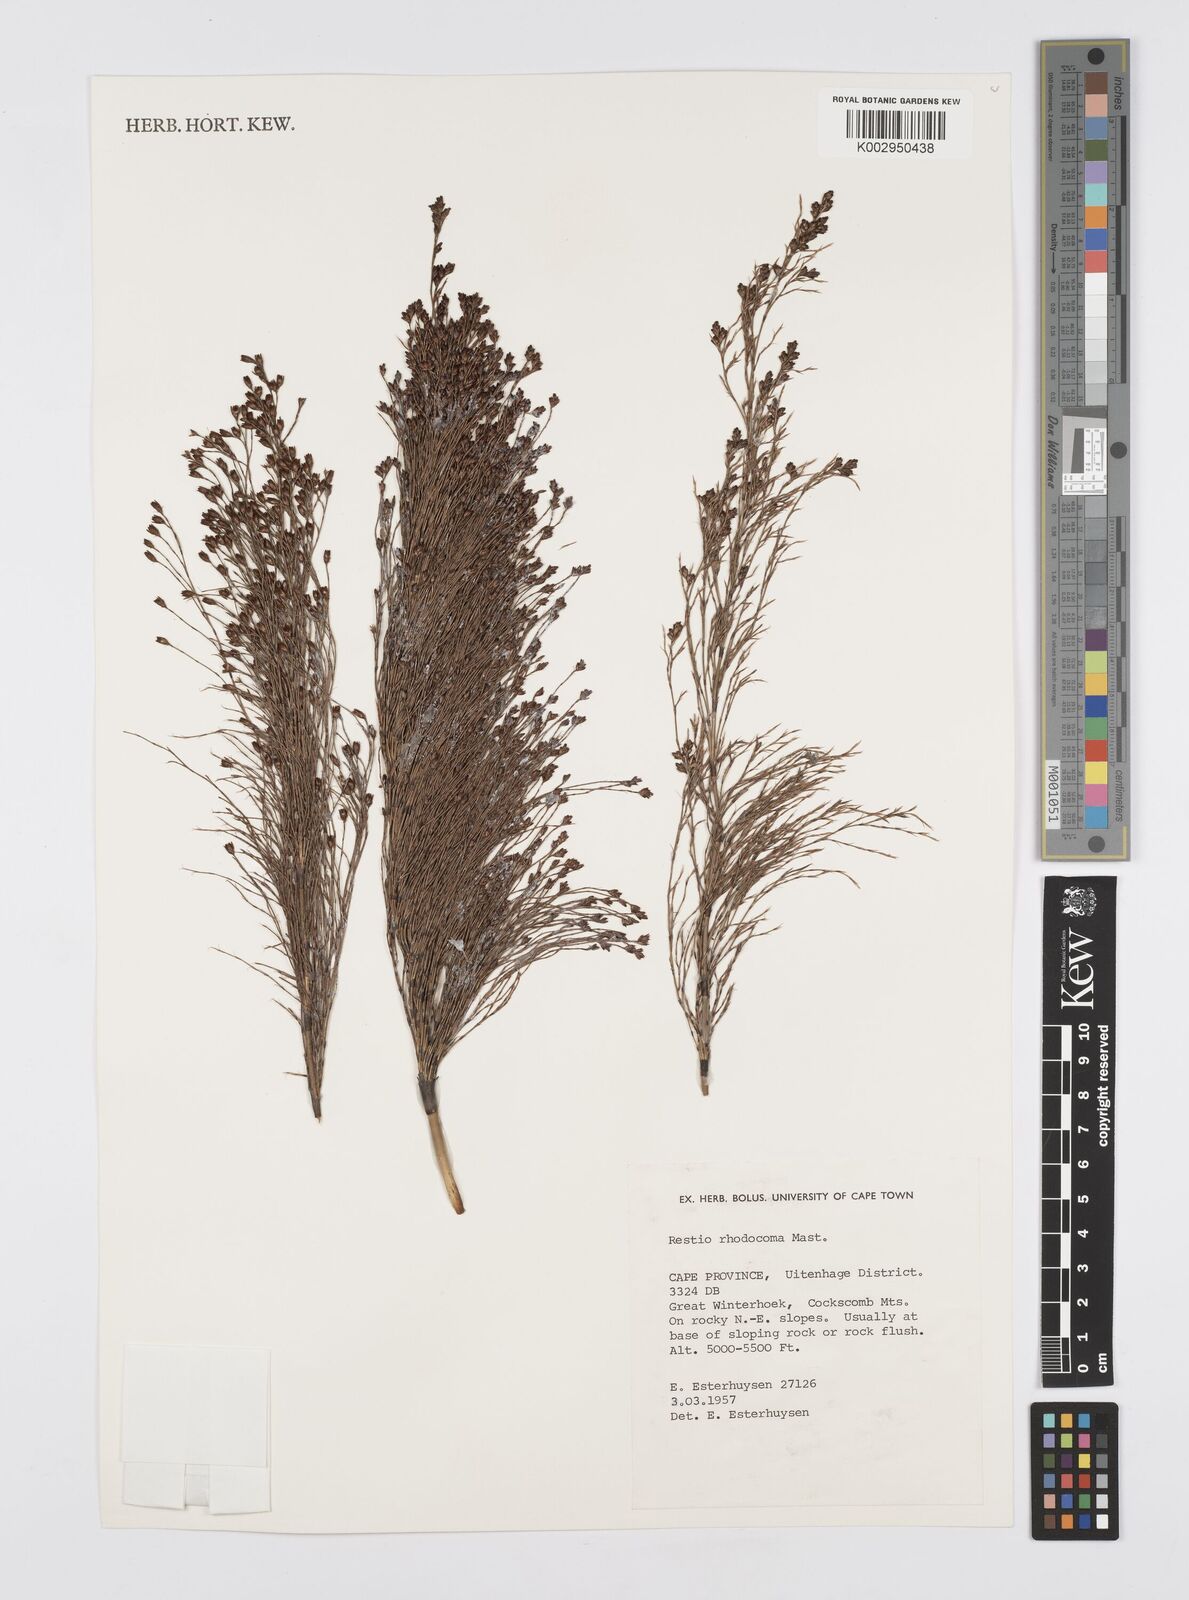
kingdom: Plantae
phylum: Tracheophyta
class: Liliopsida
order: Poales
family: Restionaceae
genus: Rhodocoma
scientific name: Rhodocoma capensis
